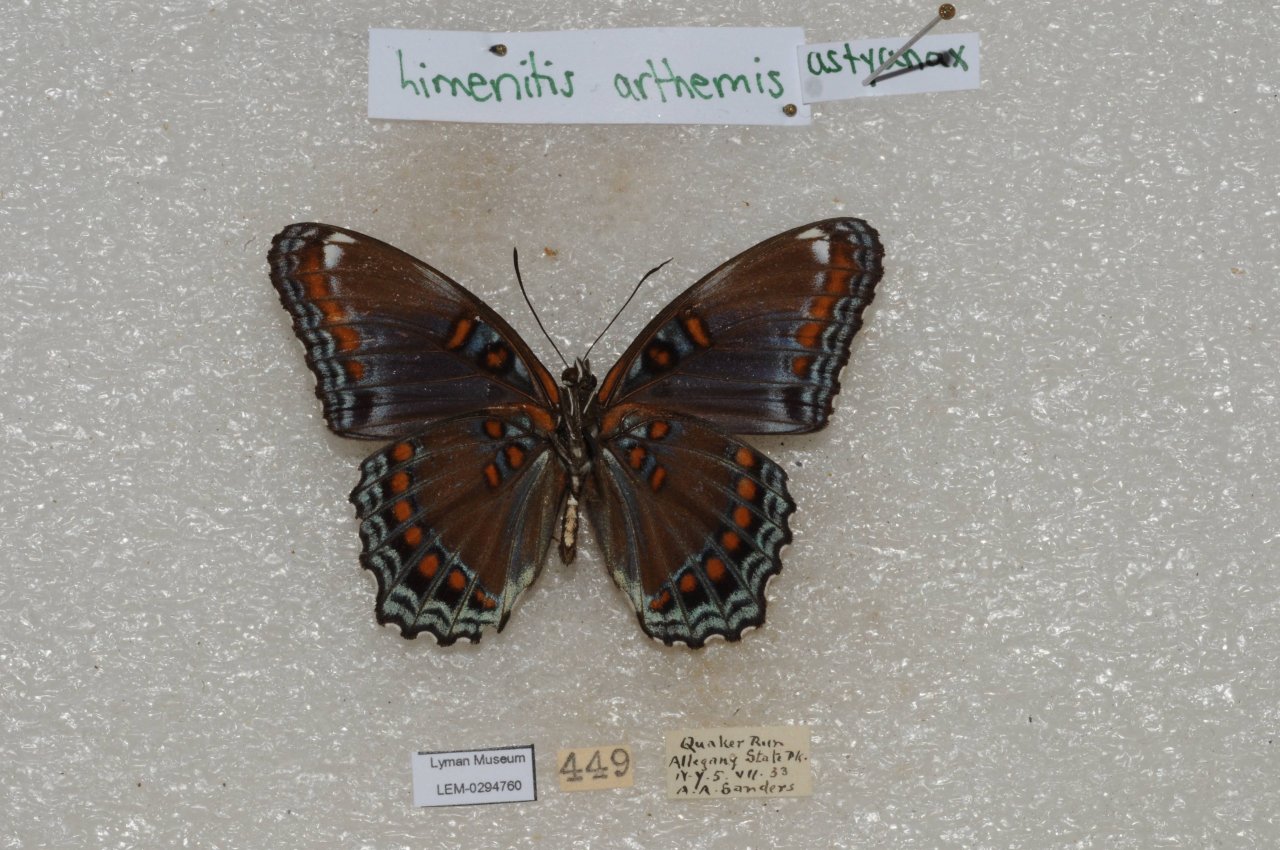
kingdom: Animalia
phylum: Arthropoda
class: Insecta
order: Lepidoptera
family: Nymphalidae
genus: Limenitis
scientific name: Limenitis
